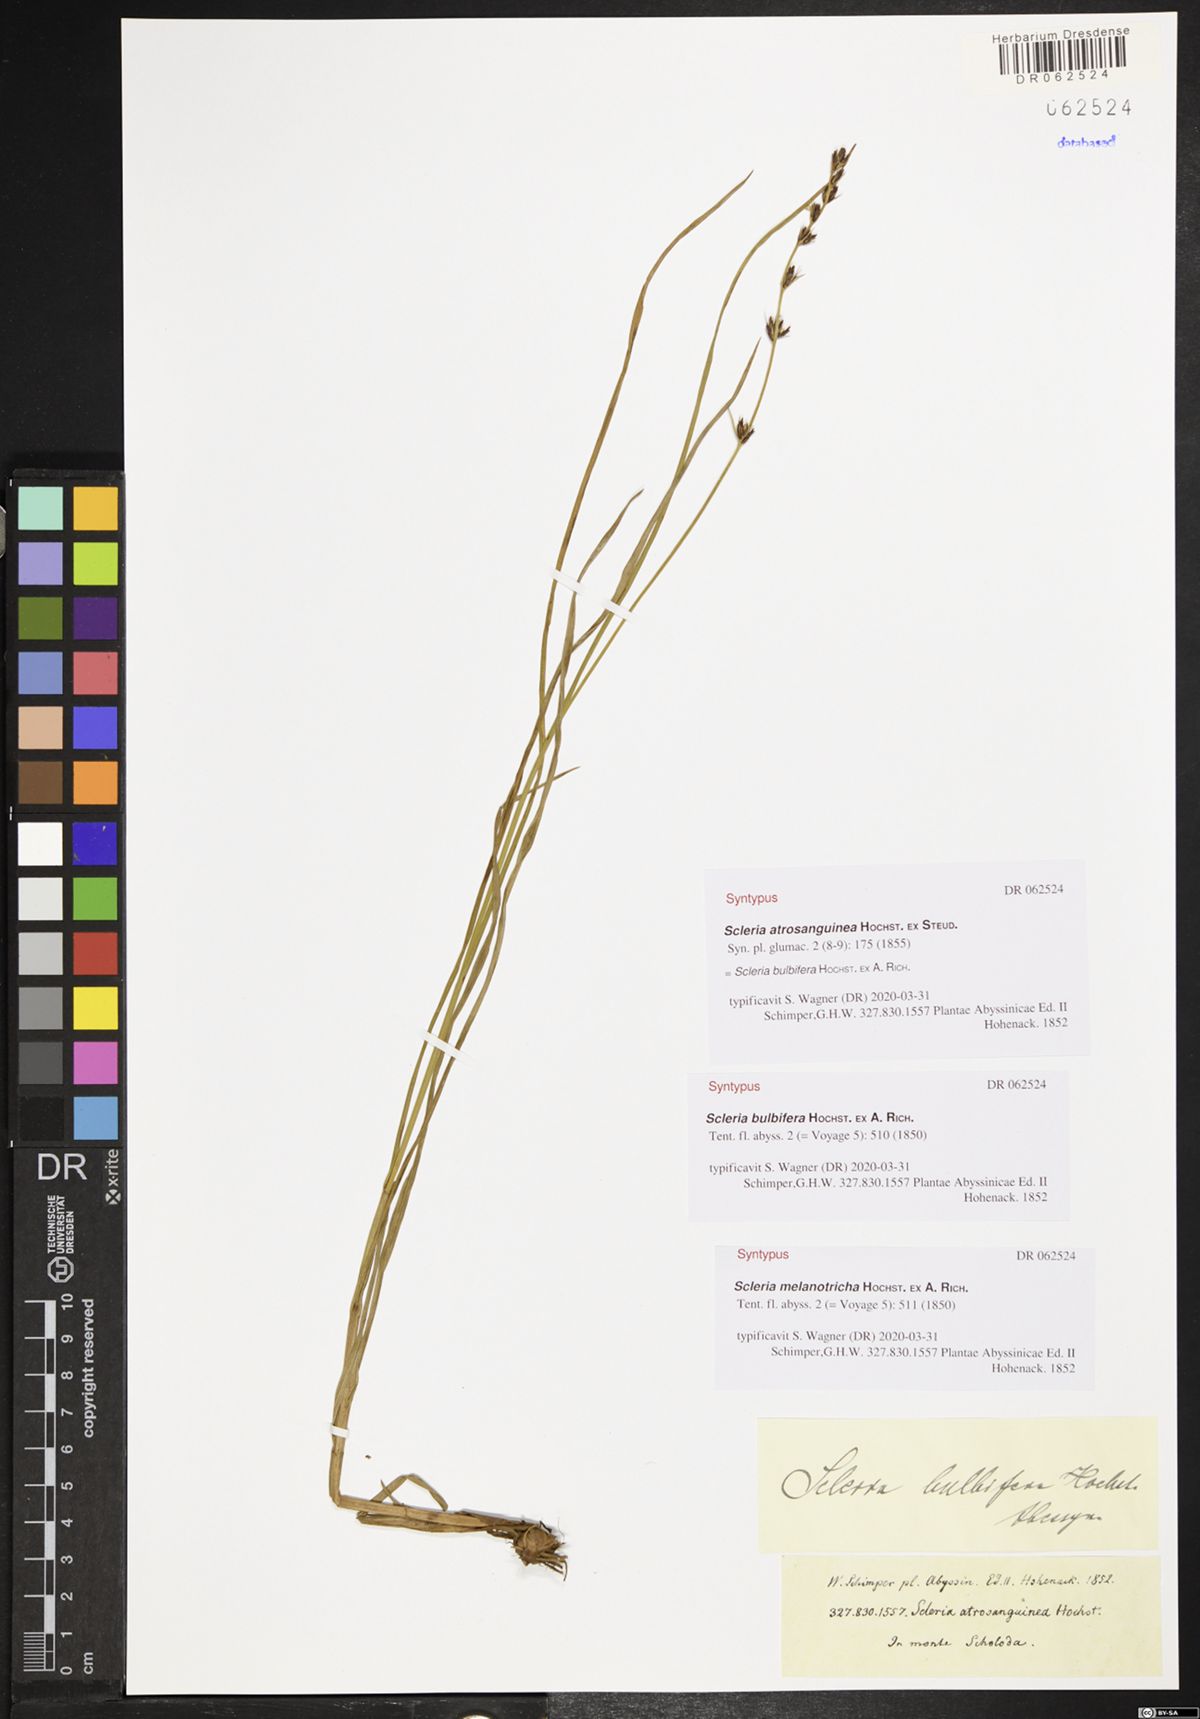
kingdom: Plantae
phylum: Tracheophyta
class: Liliopsida
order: Poales
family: Cyperaceae
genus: Scleria
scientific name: Scleria bulbifera
